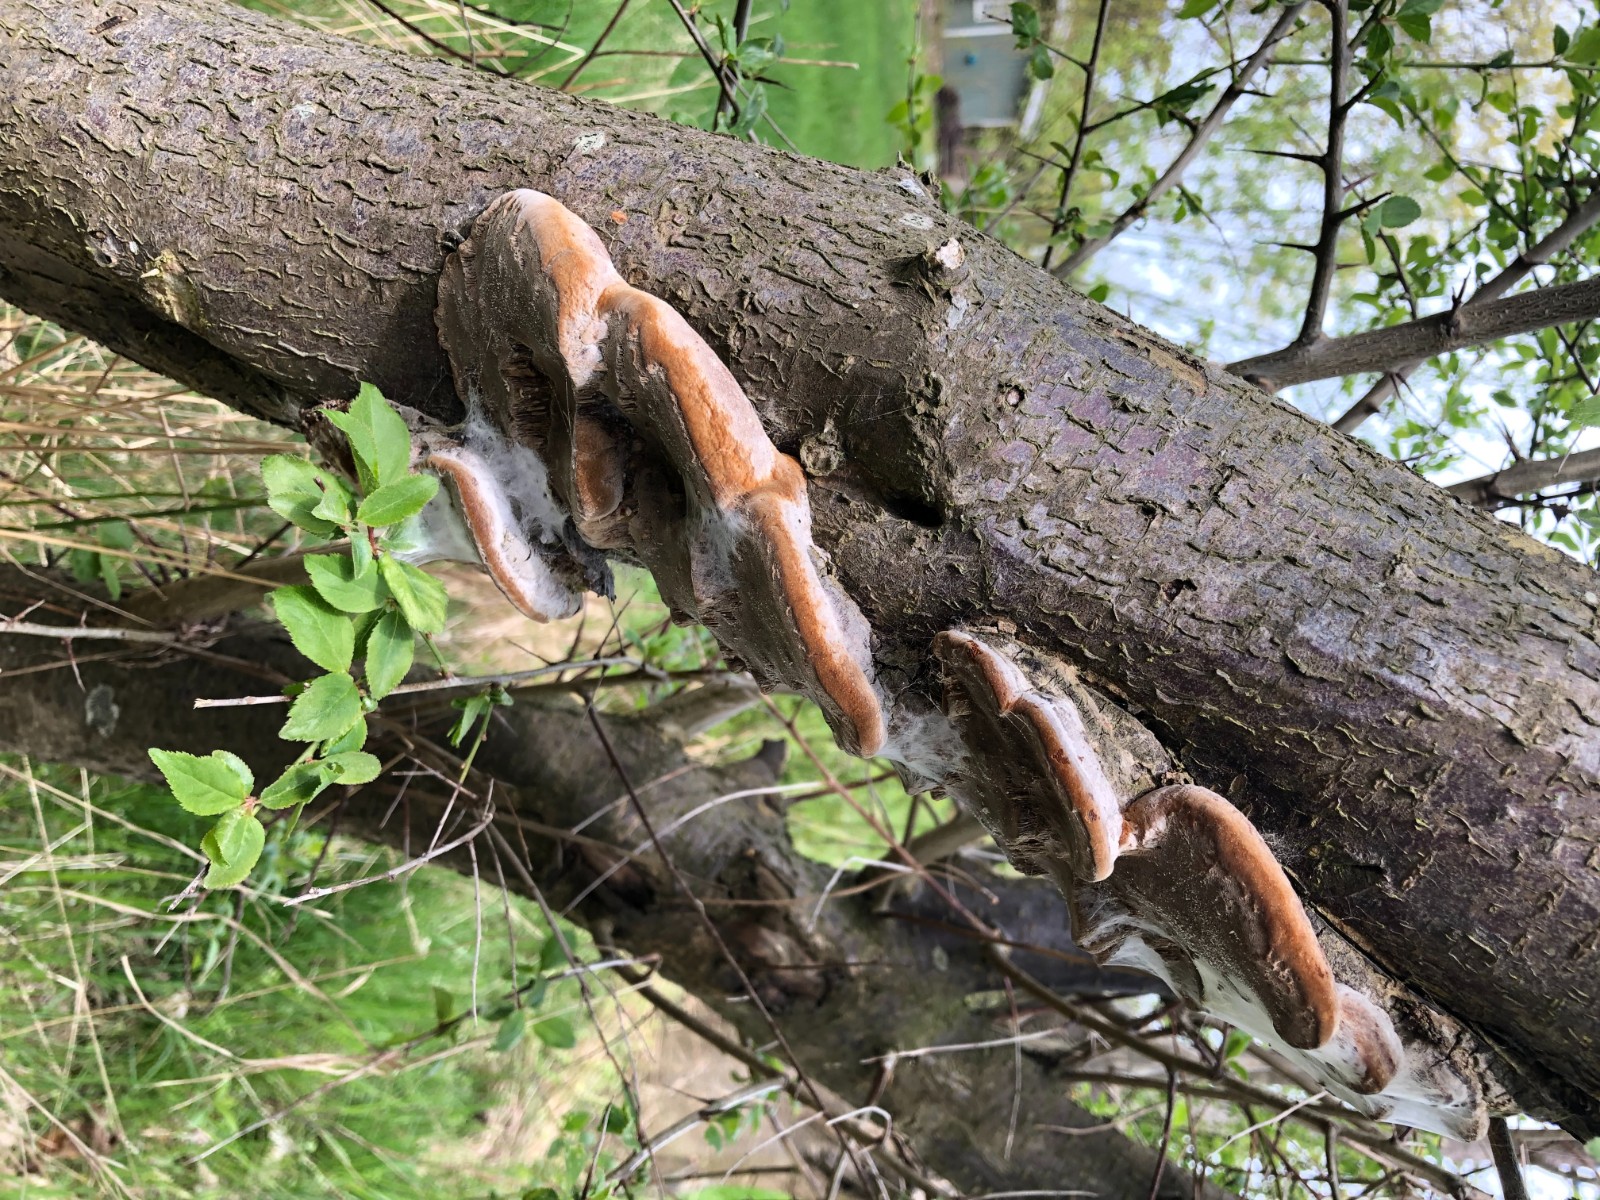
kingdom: Fungi
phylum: Basidiomycota
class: Agaricomycetes
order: Hymenochaetales
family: Hymenochaetaceae
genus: Phellinus
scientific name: Phellinus pomaceus
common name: blomme-ildporesvamp
